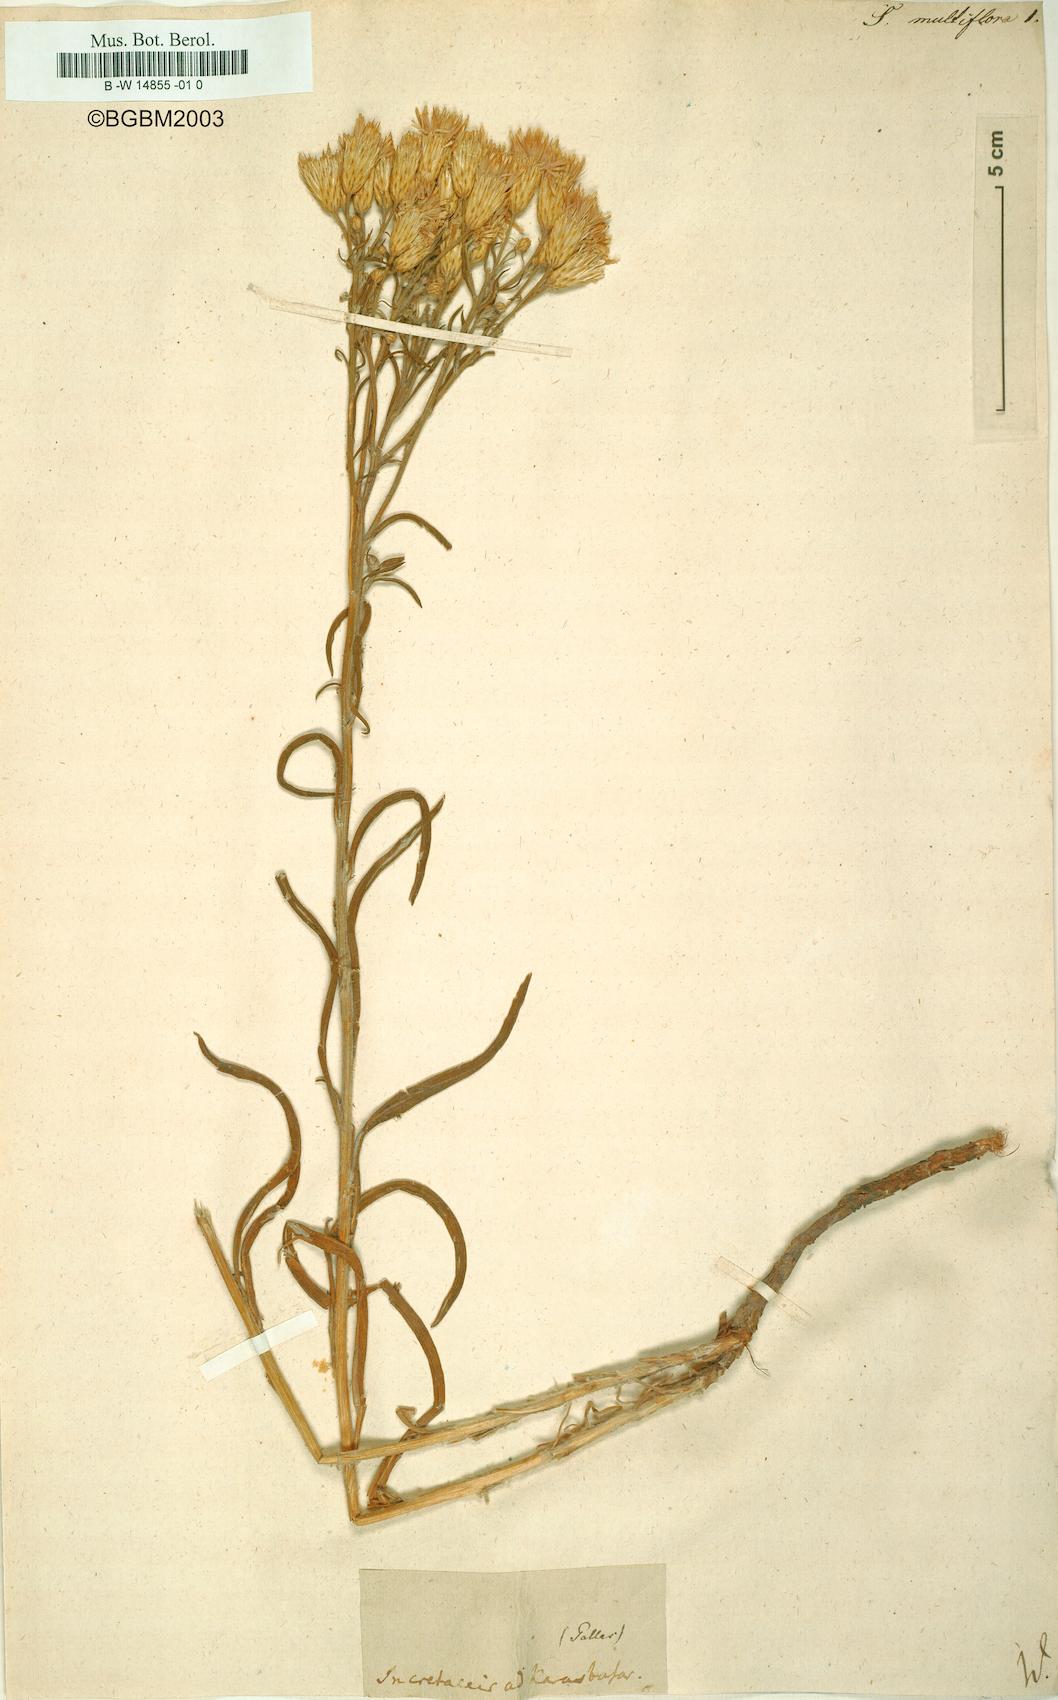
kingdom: Plantae
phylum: Tracheophyta
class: Magnoliopsida
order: Asterales
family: Asteraceae
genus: Serratula
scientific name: Serratula multiflora
